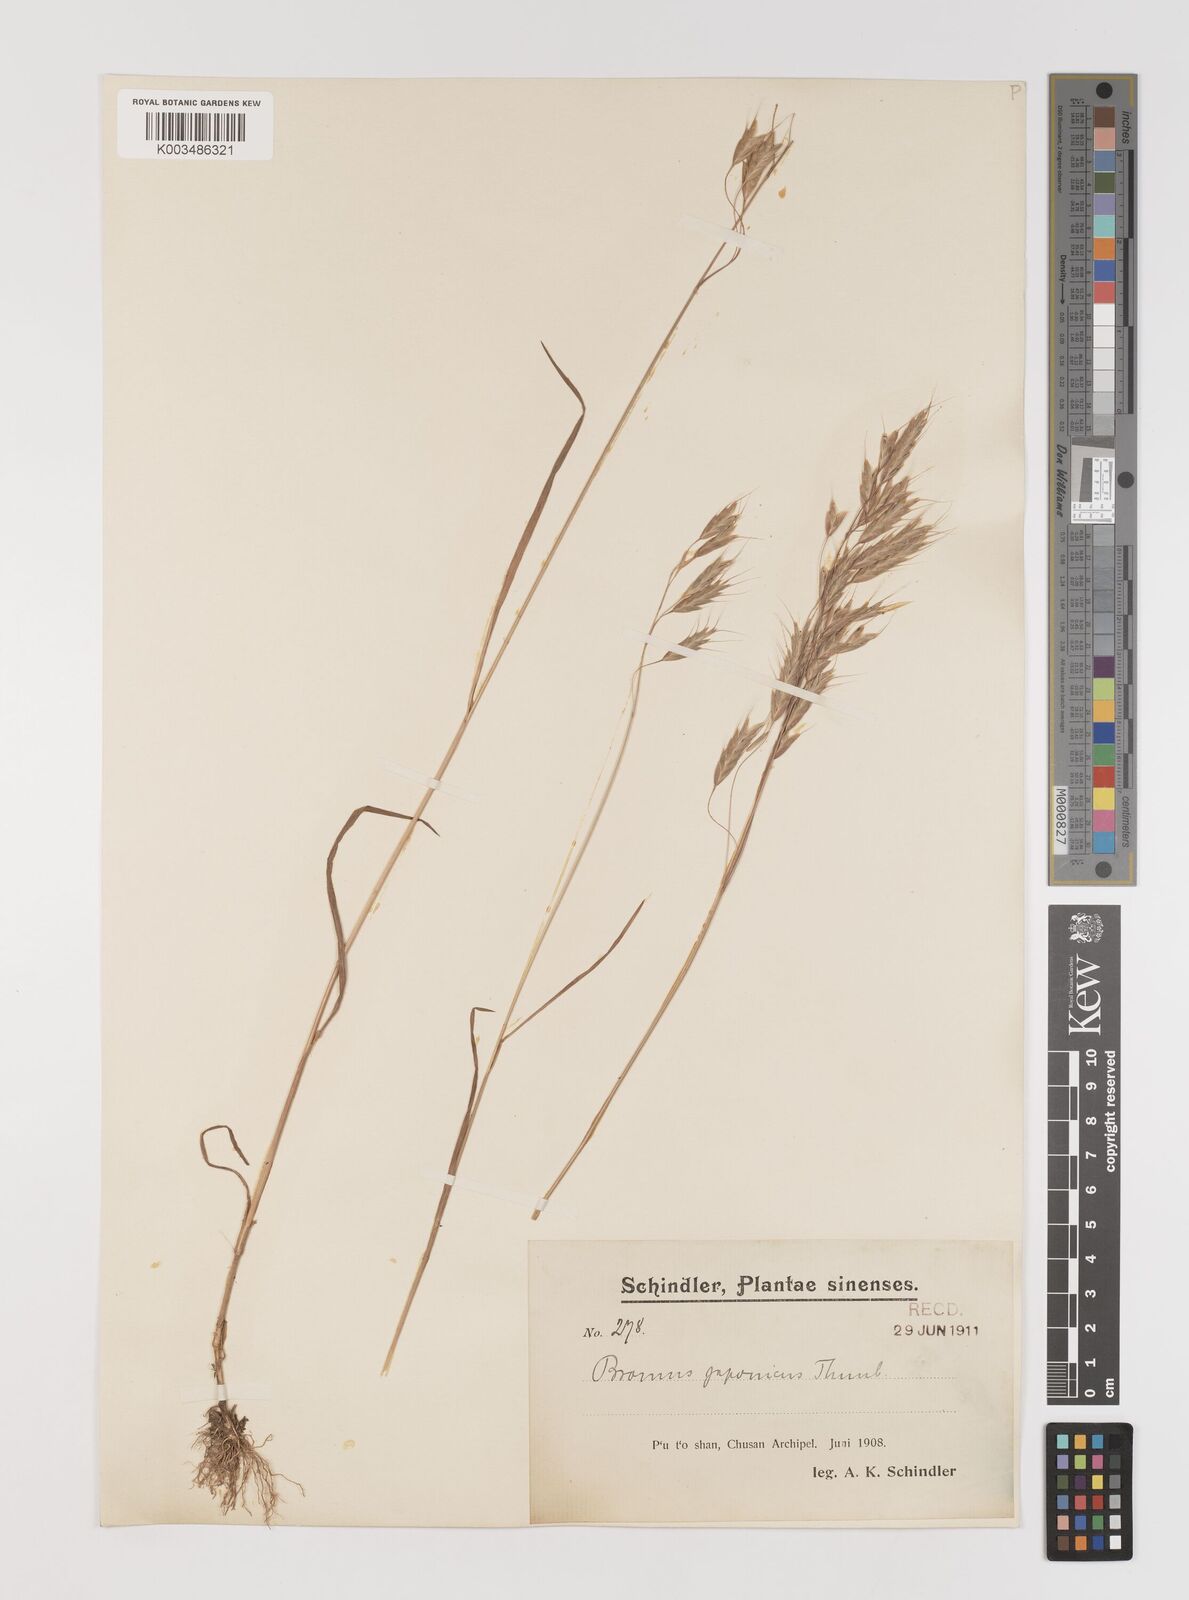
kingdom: Plantae
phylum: Tracheophyta
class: Liliopsida
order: Poales
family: Poaceae
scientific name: Poaceae
